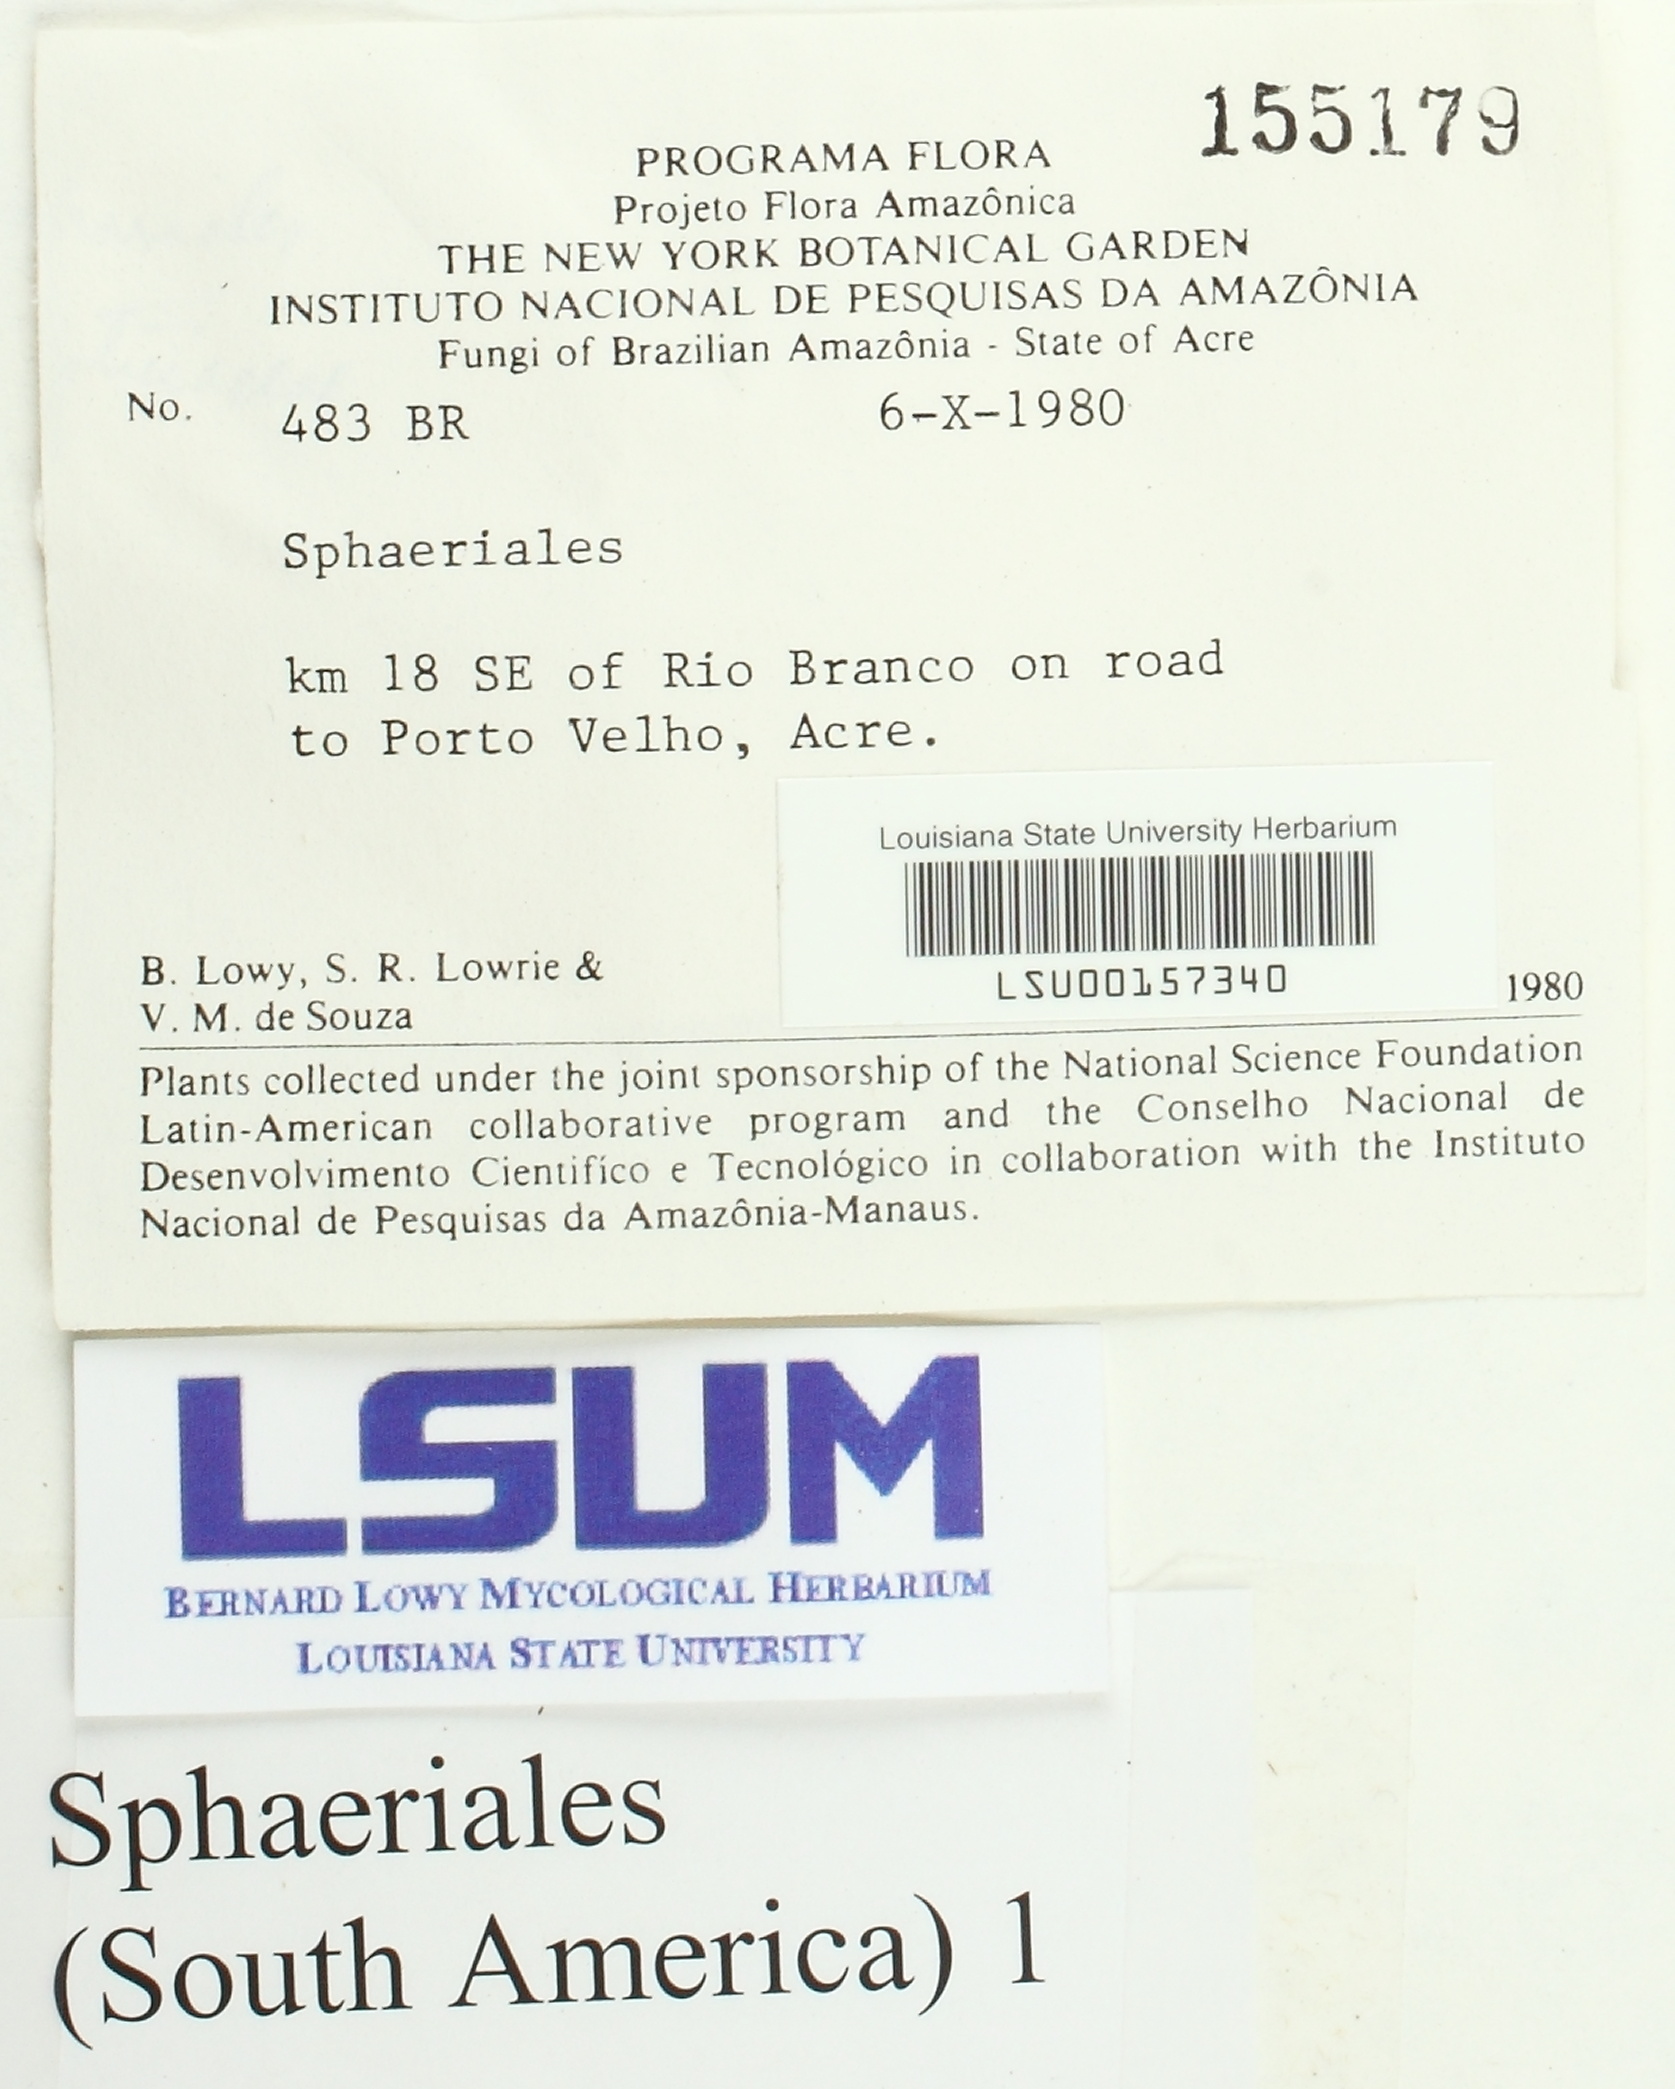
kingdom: Fungi
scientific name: Fungi
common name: Fungi
